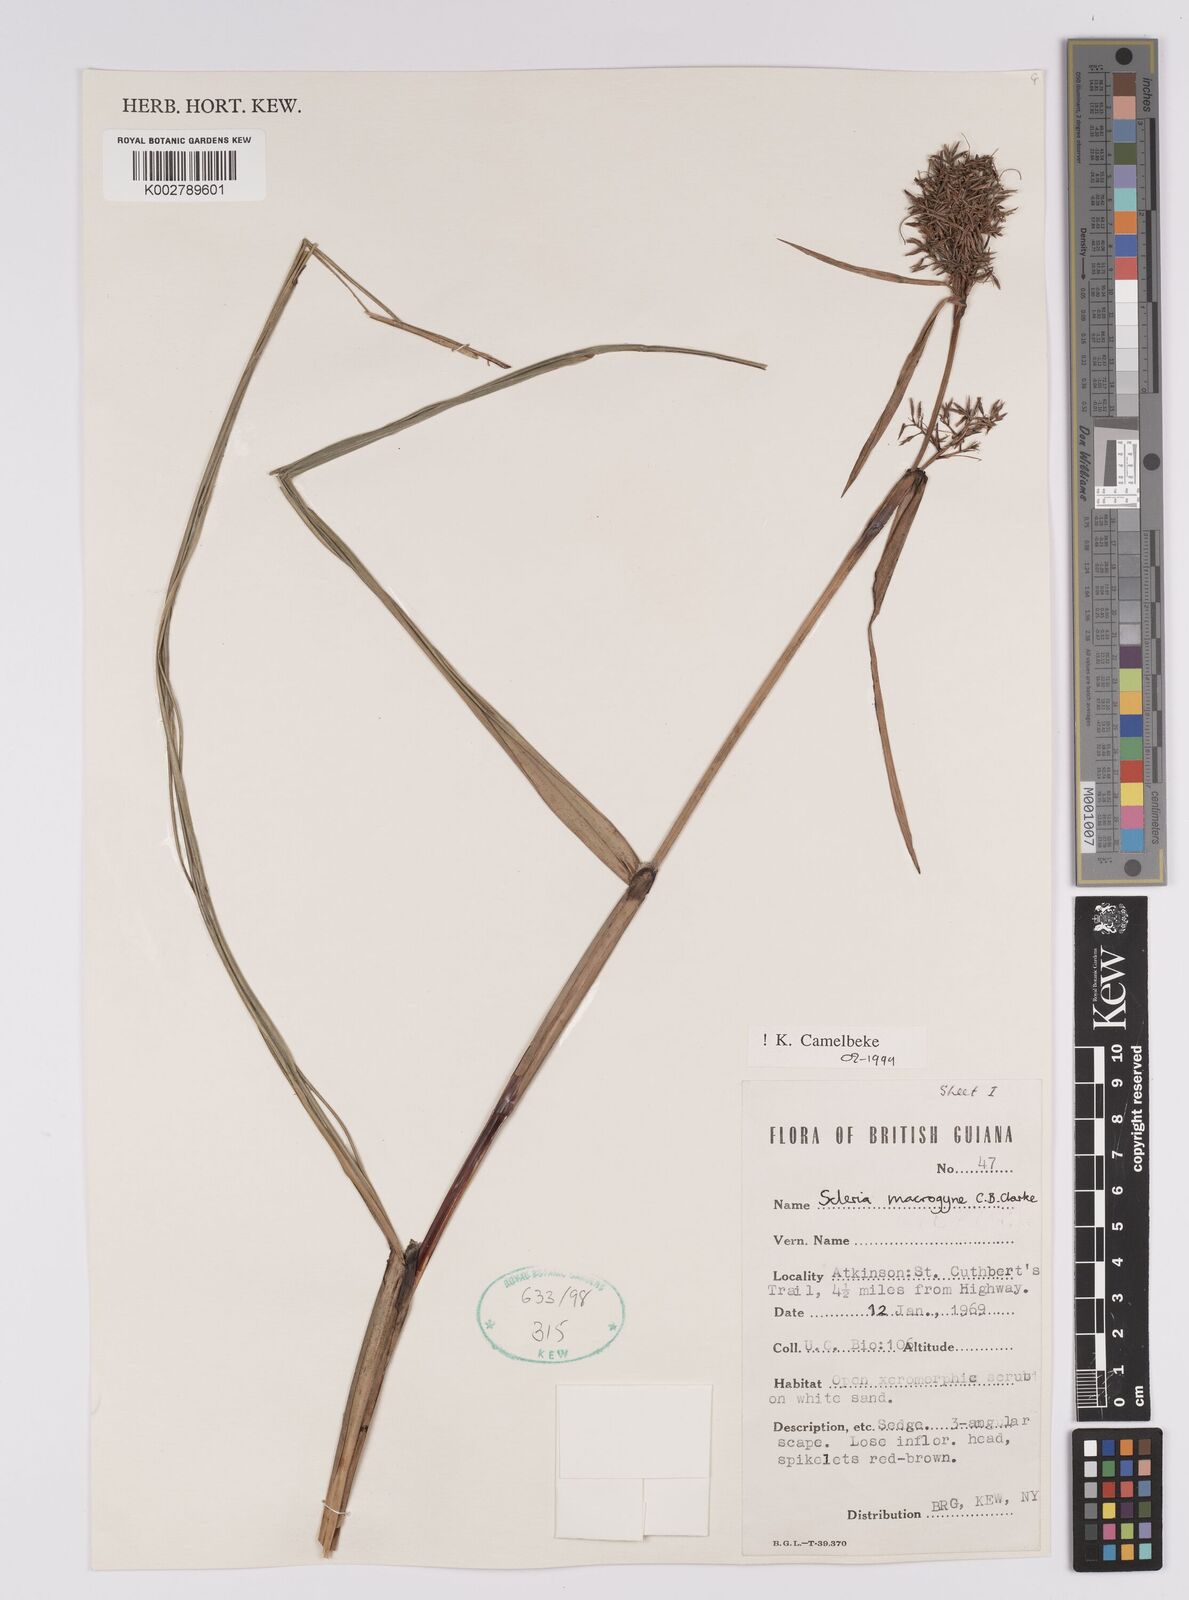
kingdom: Plantae
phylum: Tracheophyta
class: Liliopsida
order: Poales
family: Cyperaceae
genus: Scleria
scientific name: Scleria macrogyne
